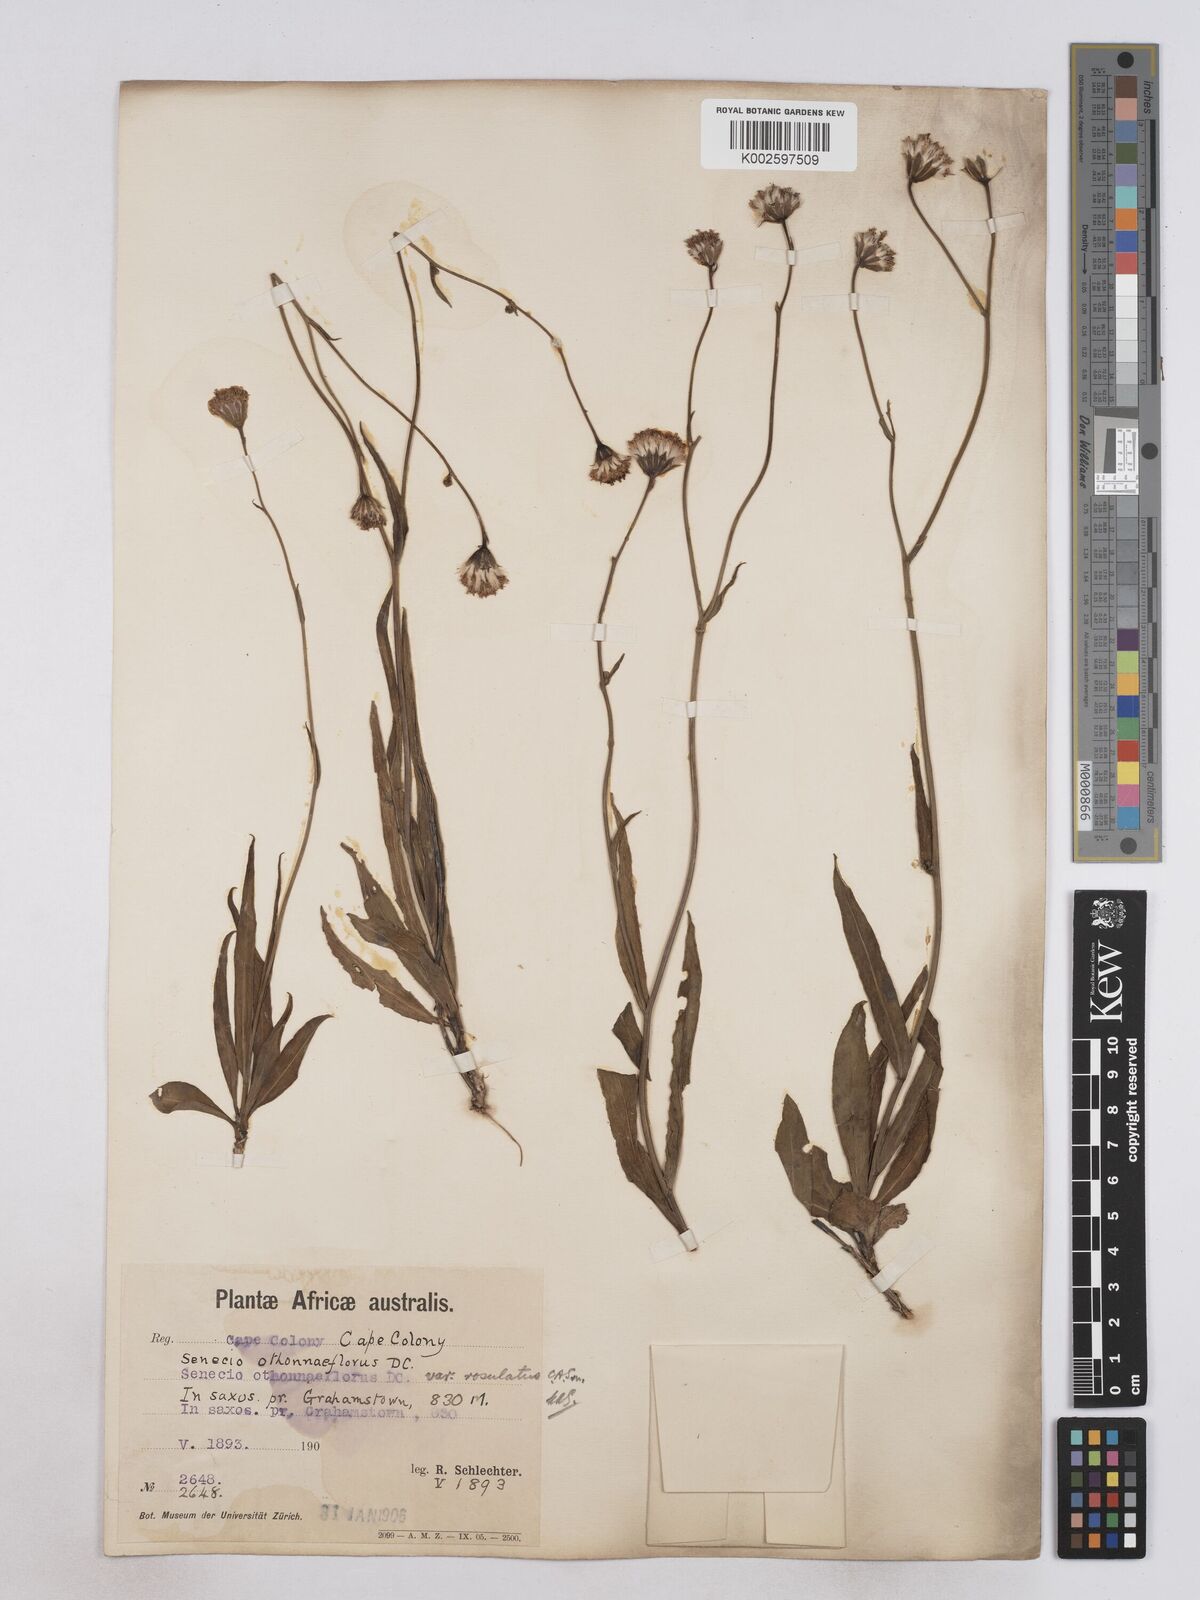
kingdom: Plantae
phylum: Tracheophyta
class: Magnoliopsida
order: Asterales
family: Asteraceae
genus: Senecio
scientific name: Senecio othonniflorus
